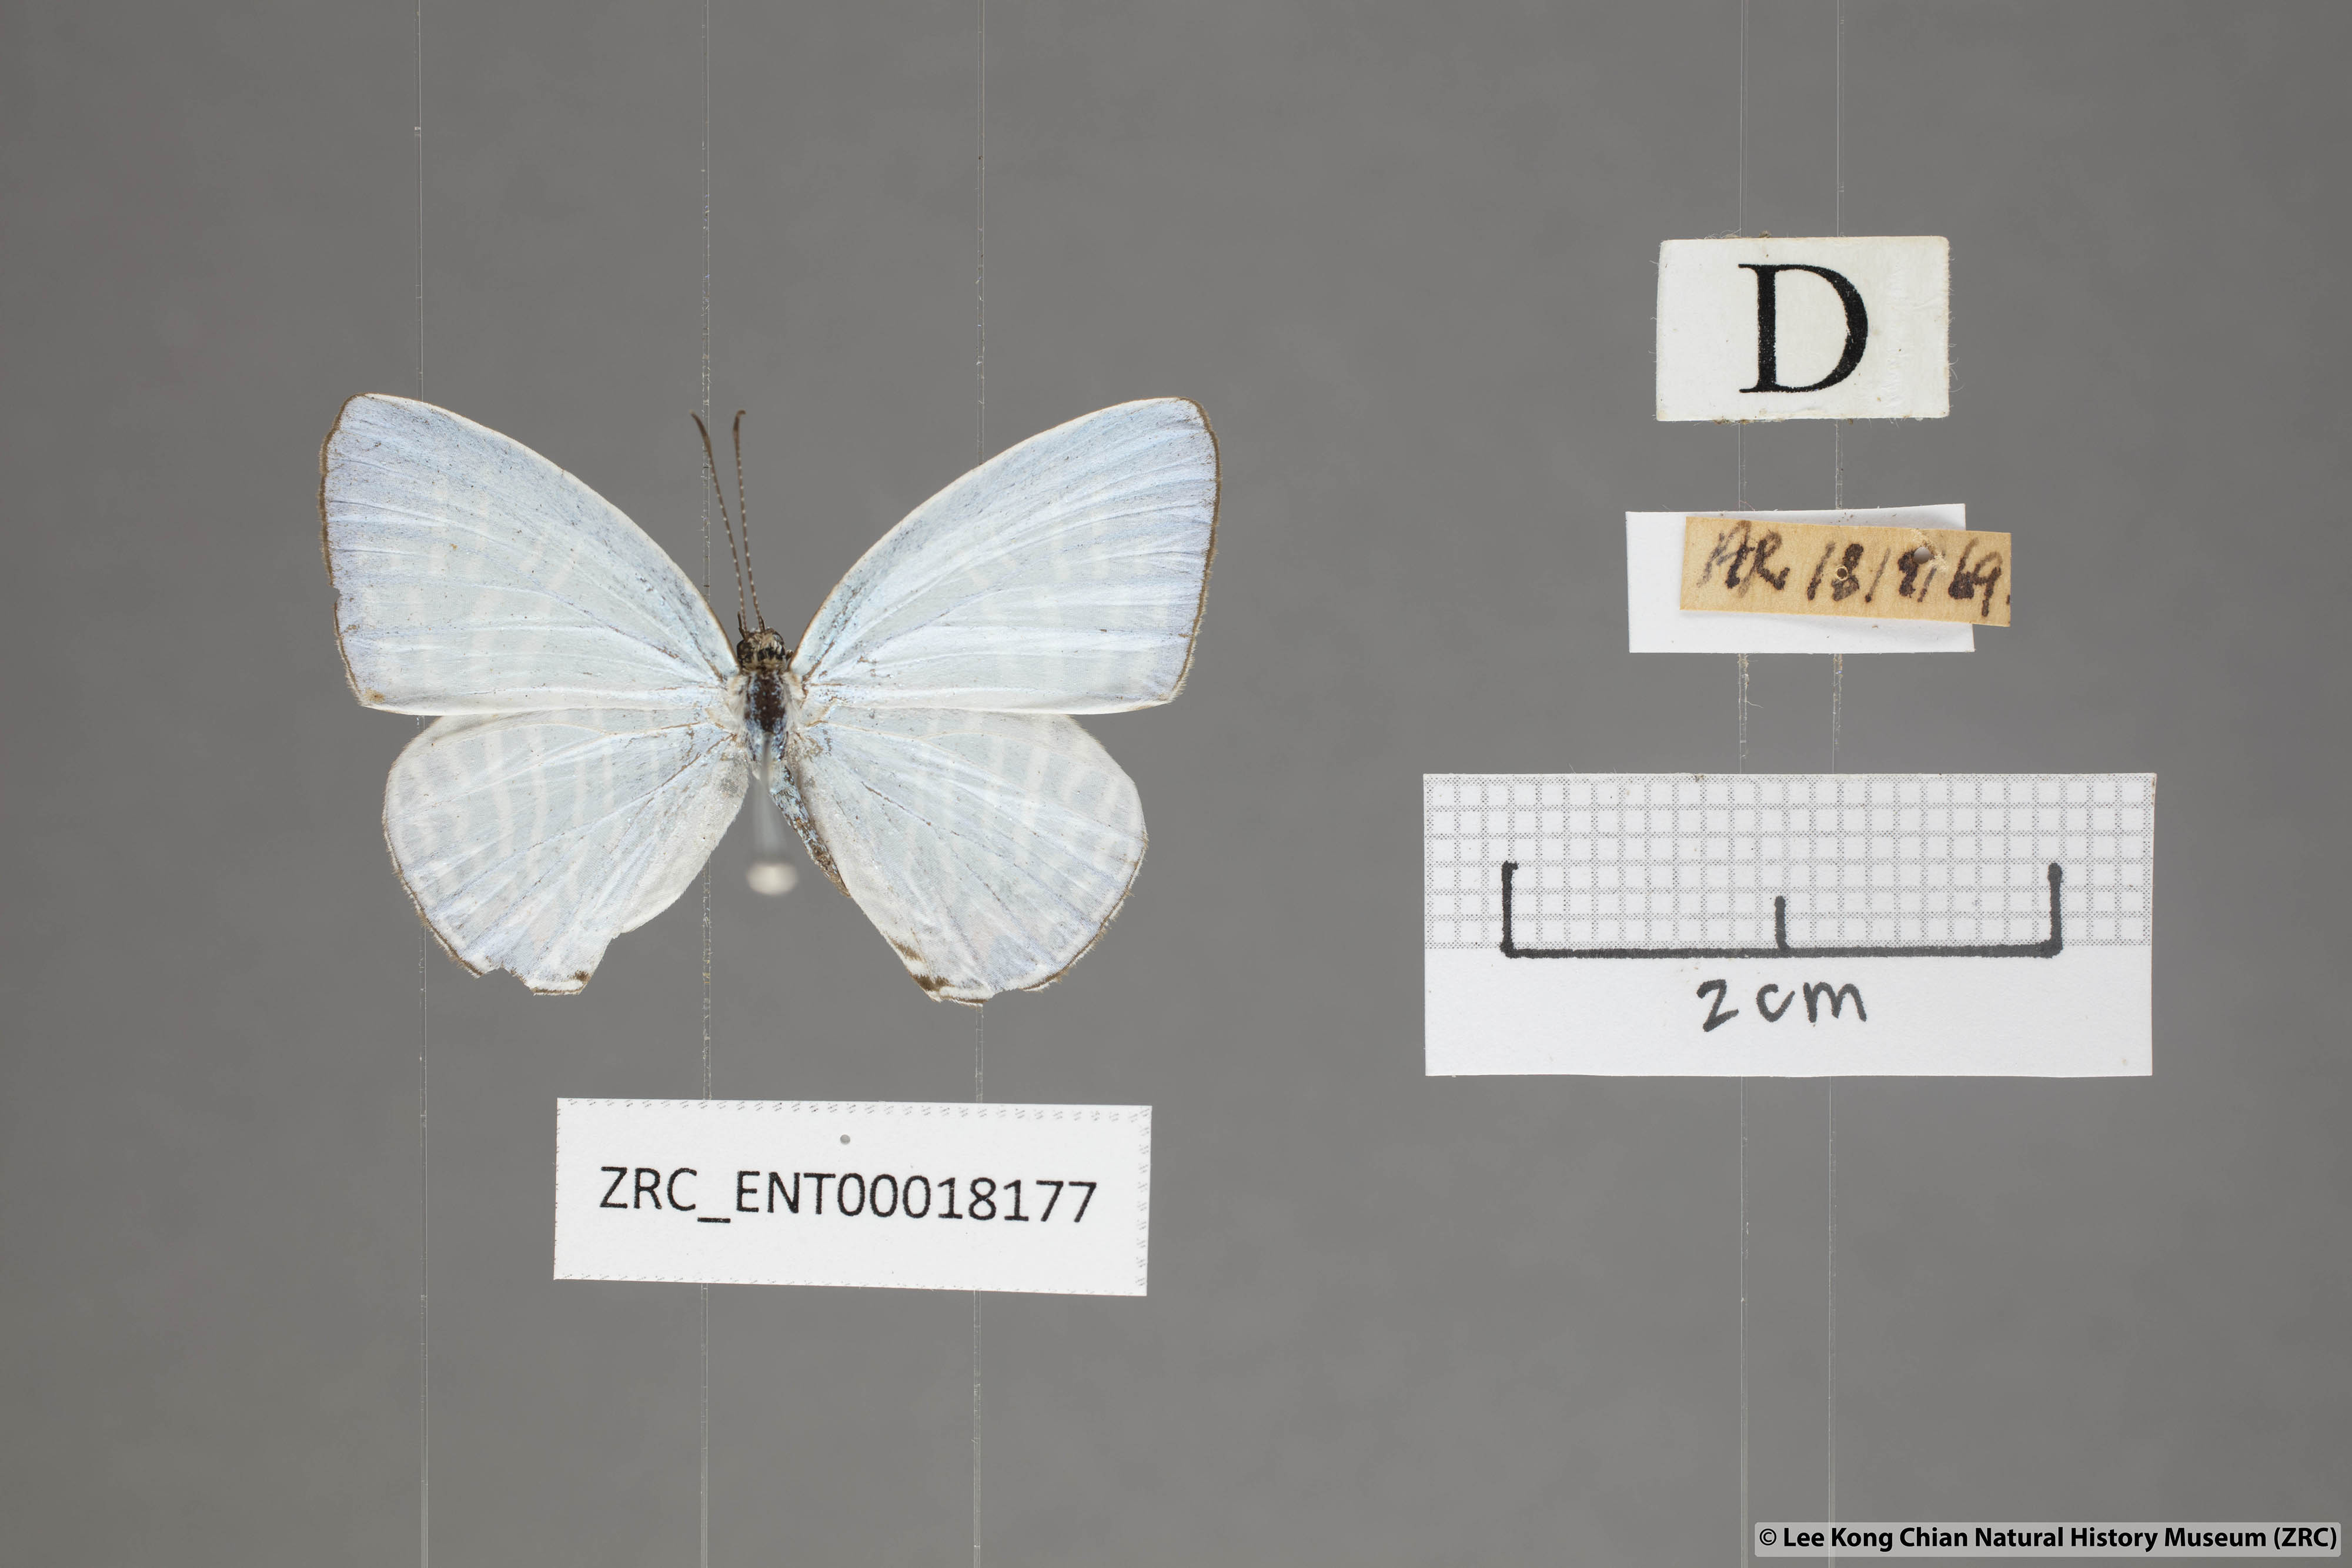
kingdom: Animalia
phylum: Arthropoda
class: Insecta
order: Lepidoptera
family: Lycaenidae
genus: Jamides
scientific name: Jamides pura
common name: White cerulean
